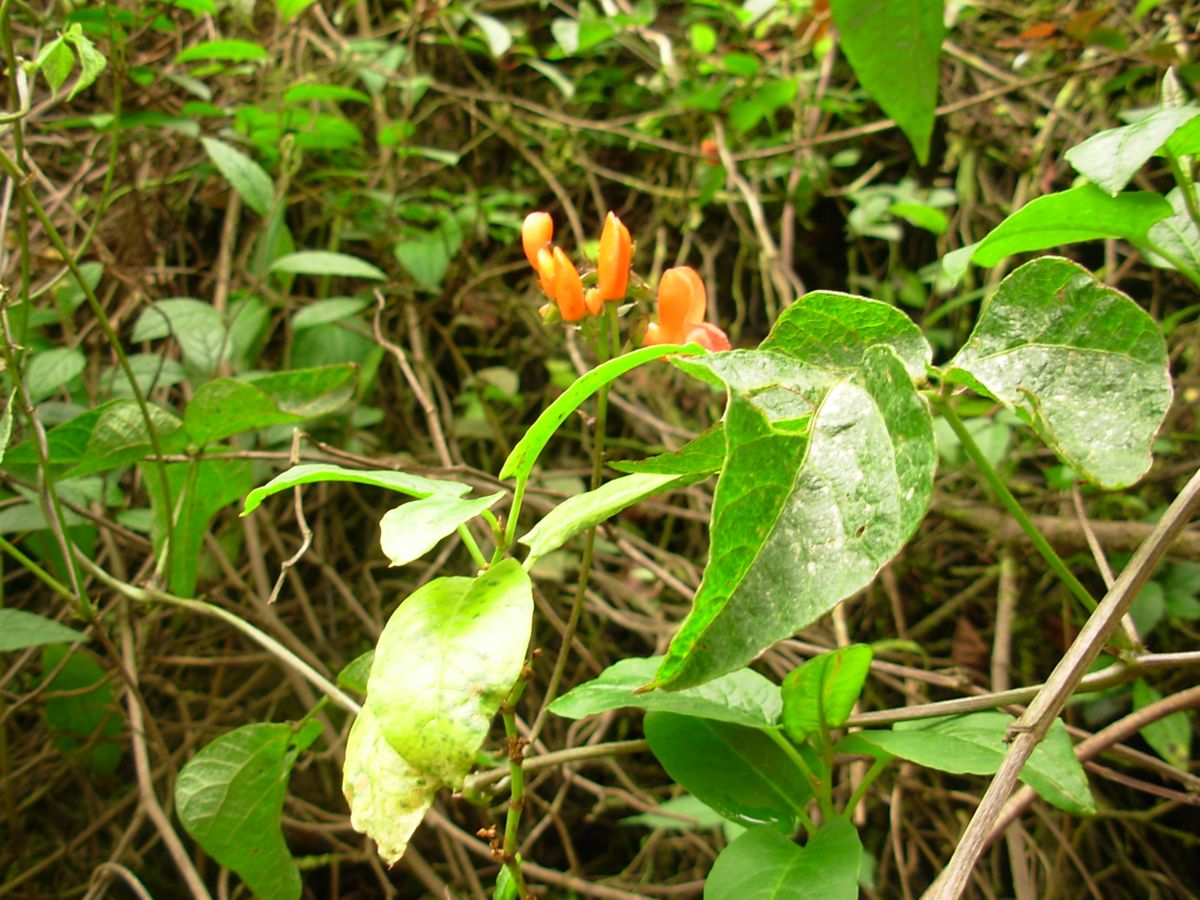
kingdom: Plantae
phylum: Tracheophyta
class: Magnoliopsida
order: Fabales
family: Fabaceae
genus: Phaseolus
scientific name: Phaseolus coccineus
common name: Runner bean
